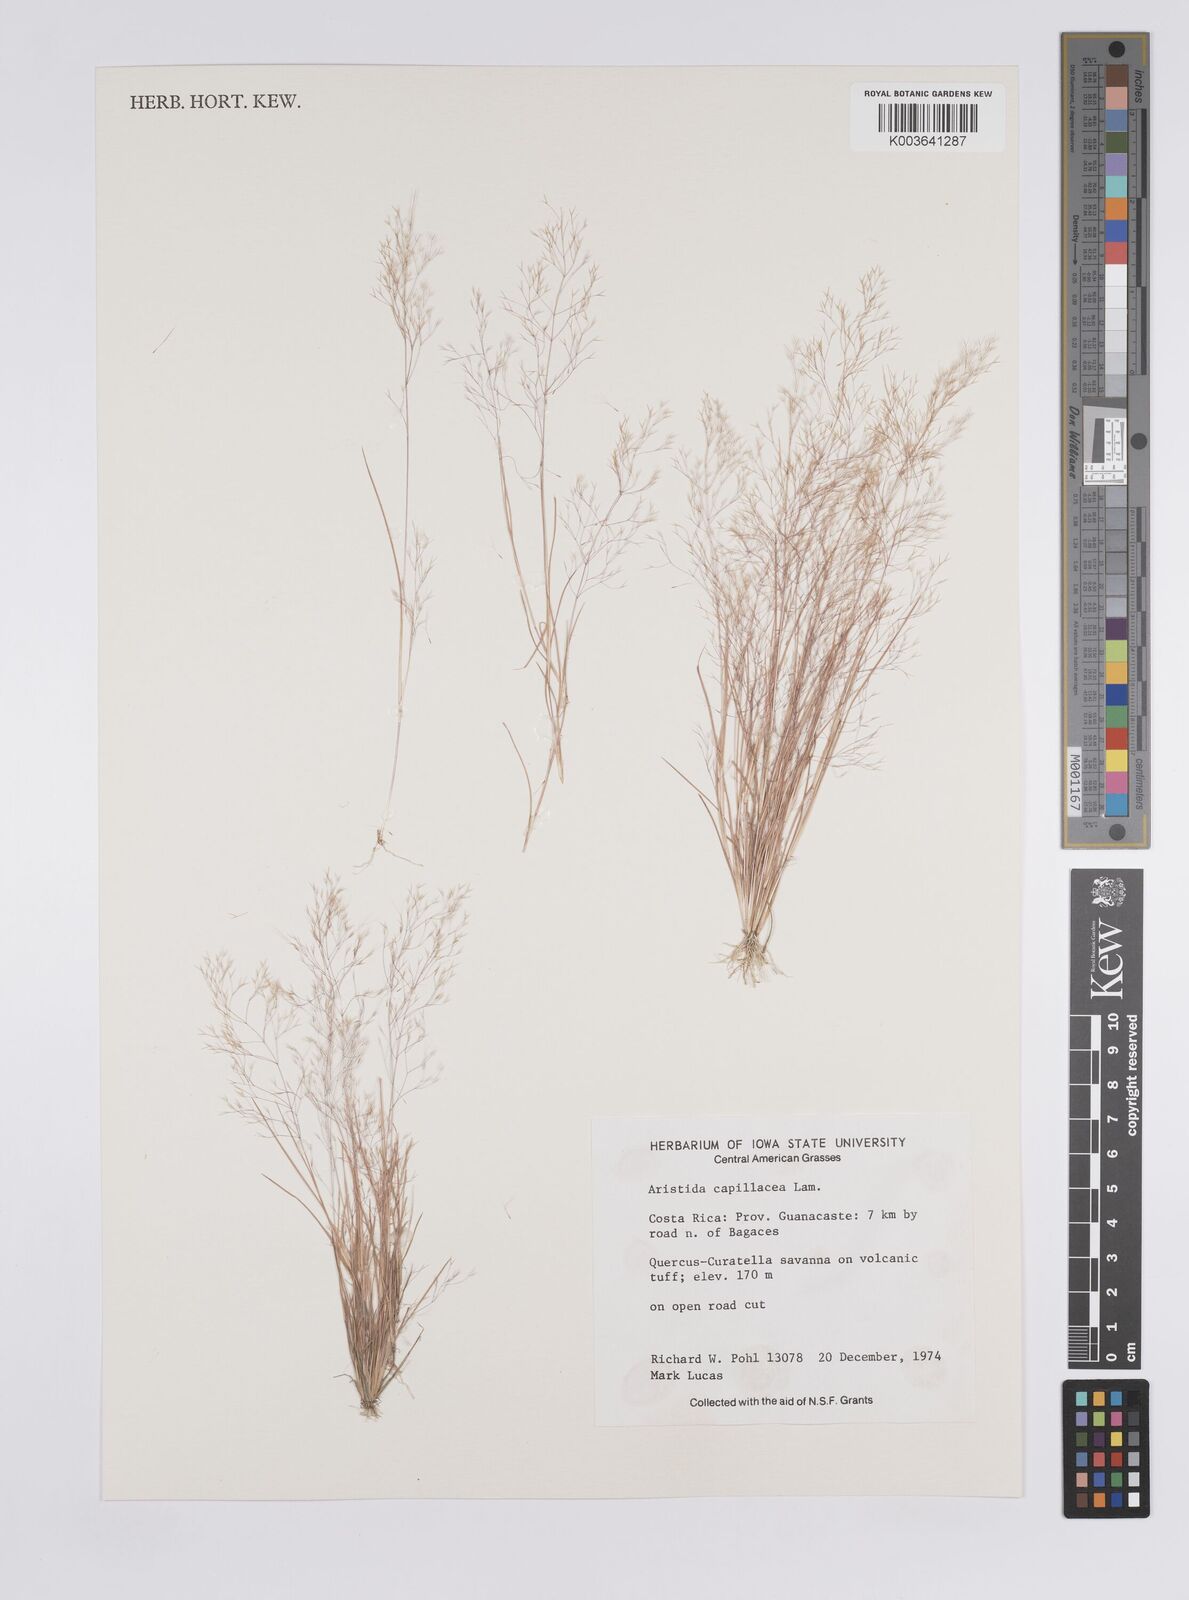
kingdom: Plantae
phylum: Tracheophyta
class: Liliopsida
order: Poales
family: Poaceae
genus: Aristida
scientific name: Aristida
